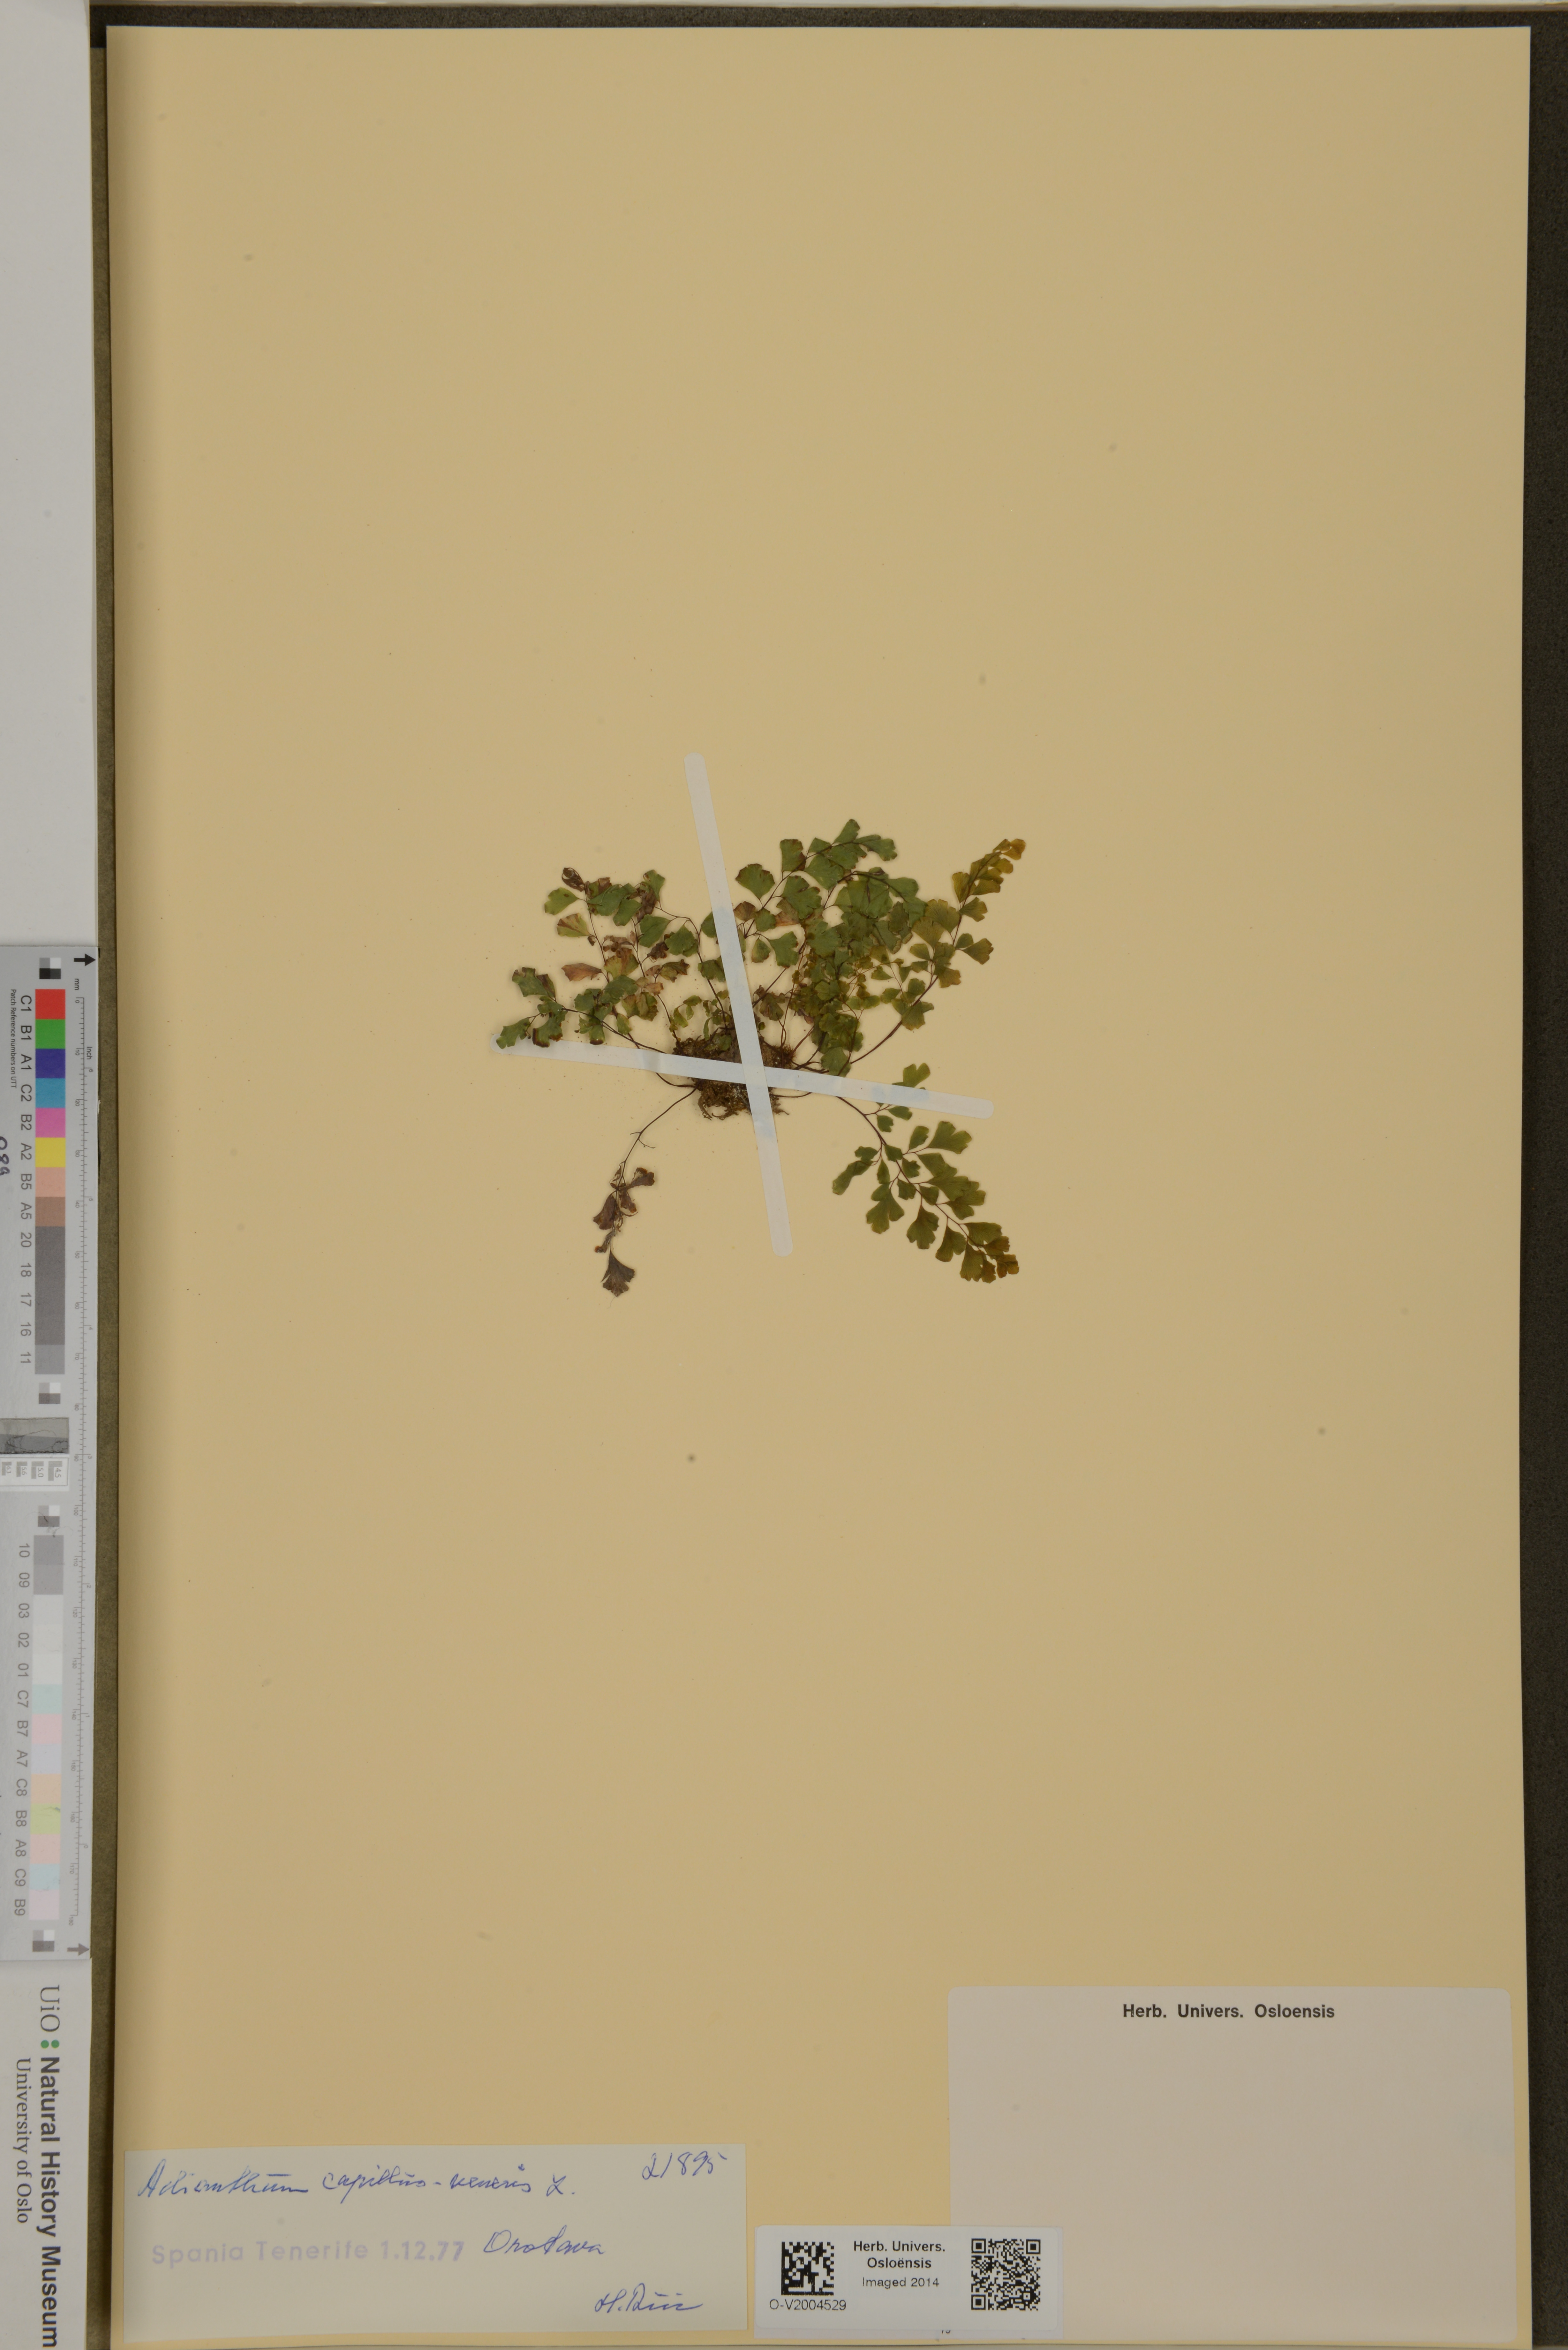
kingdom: Plantae
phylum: Tracheophyta
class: Polypodiopsida
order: Polypodiales
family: Pteridaceae
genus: Adiantum
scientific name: Adiantum capillus-veneris
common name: Maidenhair fern
